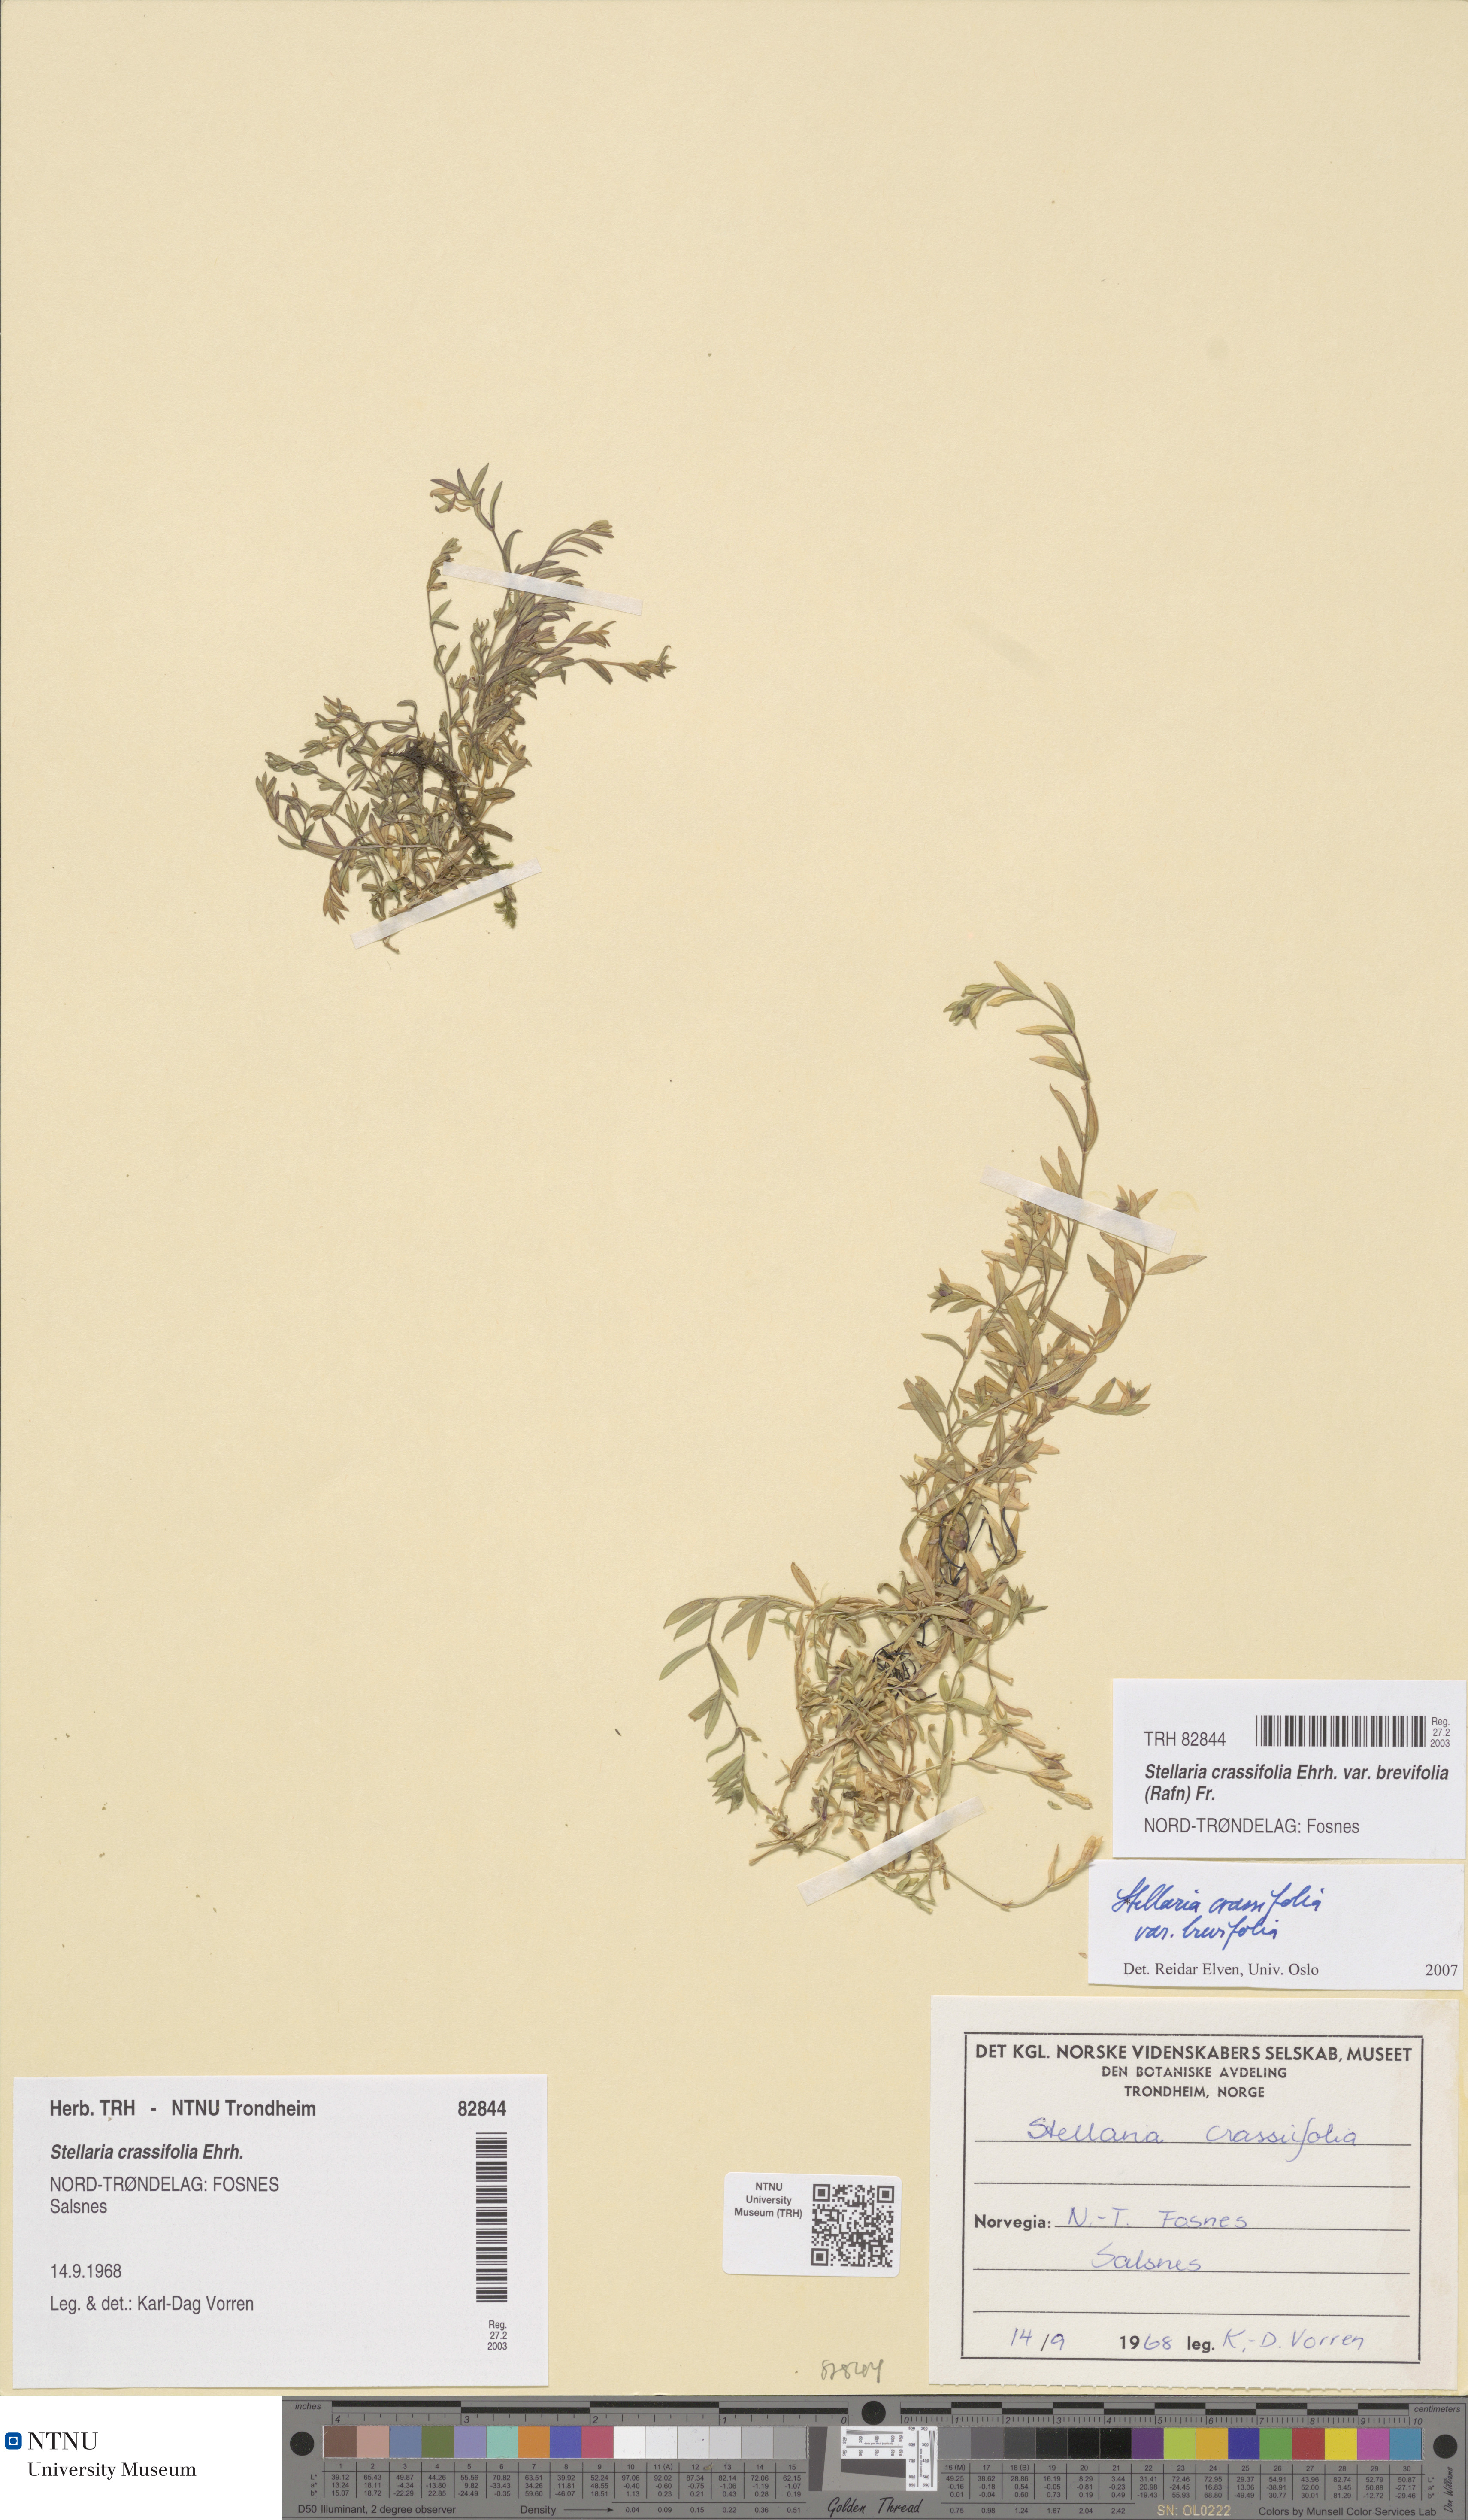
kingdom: Plantae
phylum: Tracheophyta
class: Magnoliopsida
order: Caryophyllales
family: Caryophyllaceae
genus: Stellaria
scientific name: Stellaria crassifolia
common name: Fleshy starwort
